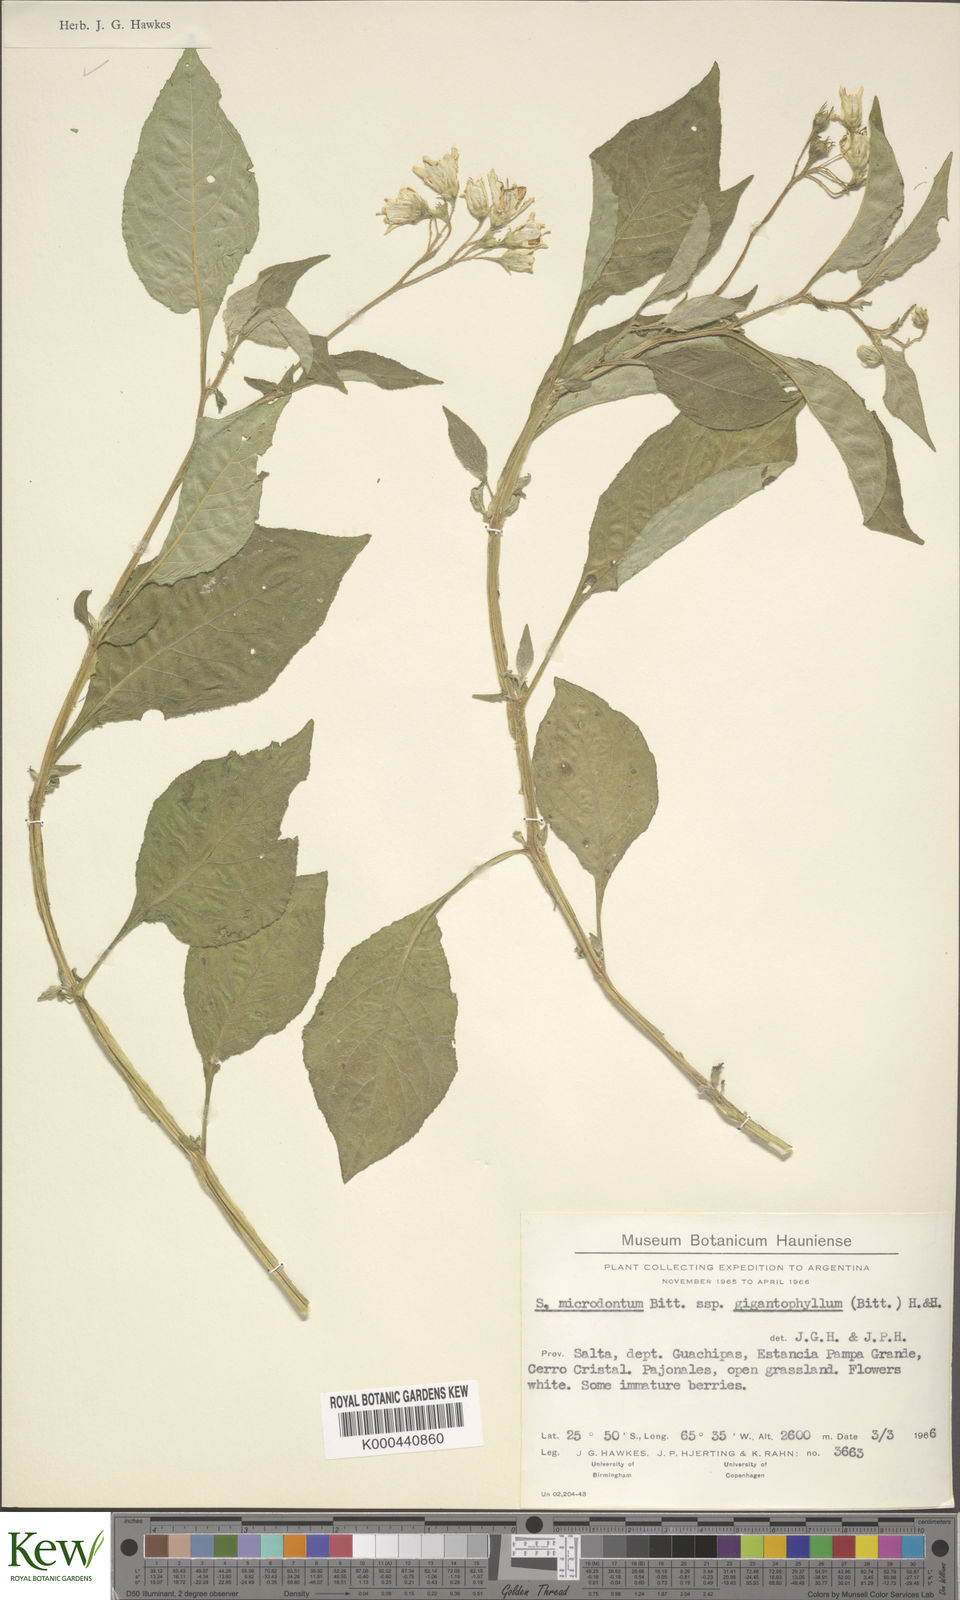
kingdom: Plantae
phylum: Tracheophyta
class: Magnoliopsida
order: Solanales
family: Solanaceae
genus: Solanum
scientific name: Solanum microdontum
